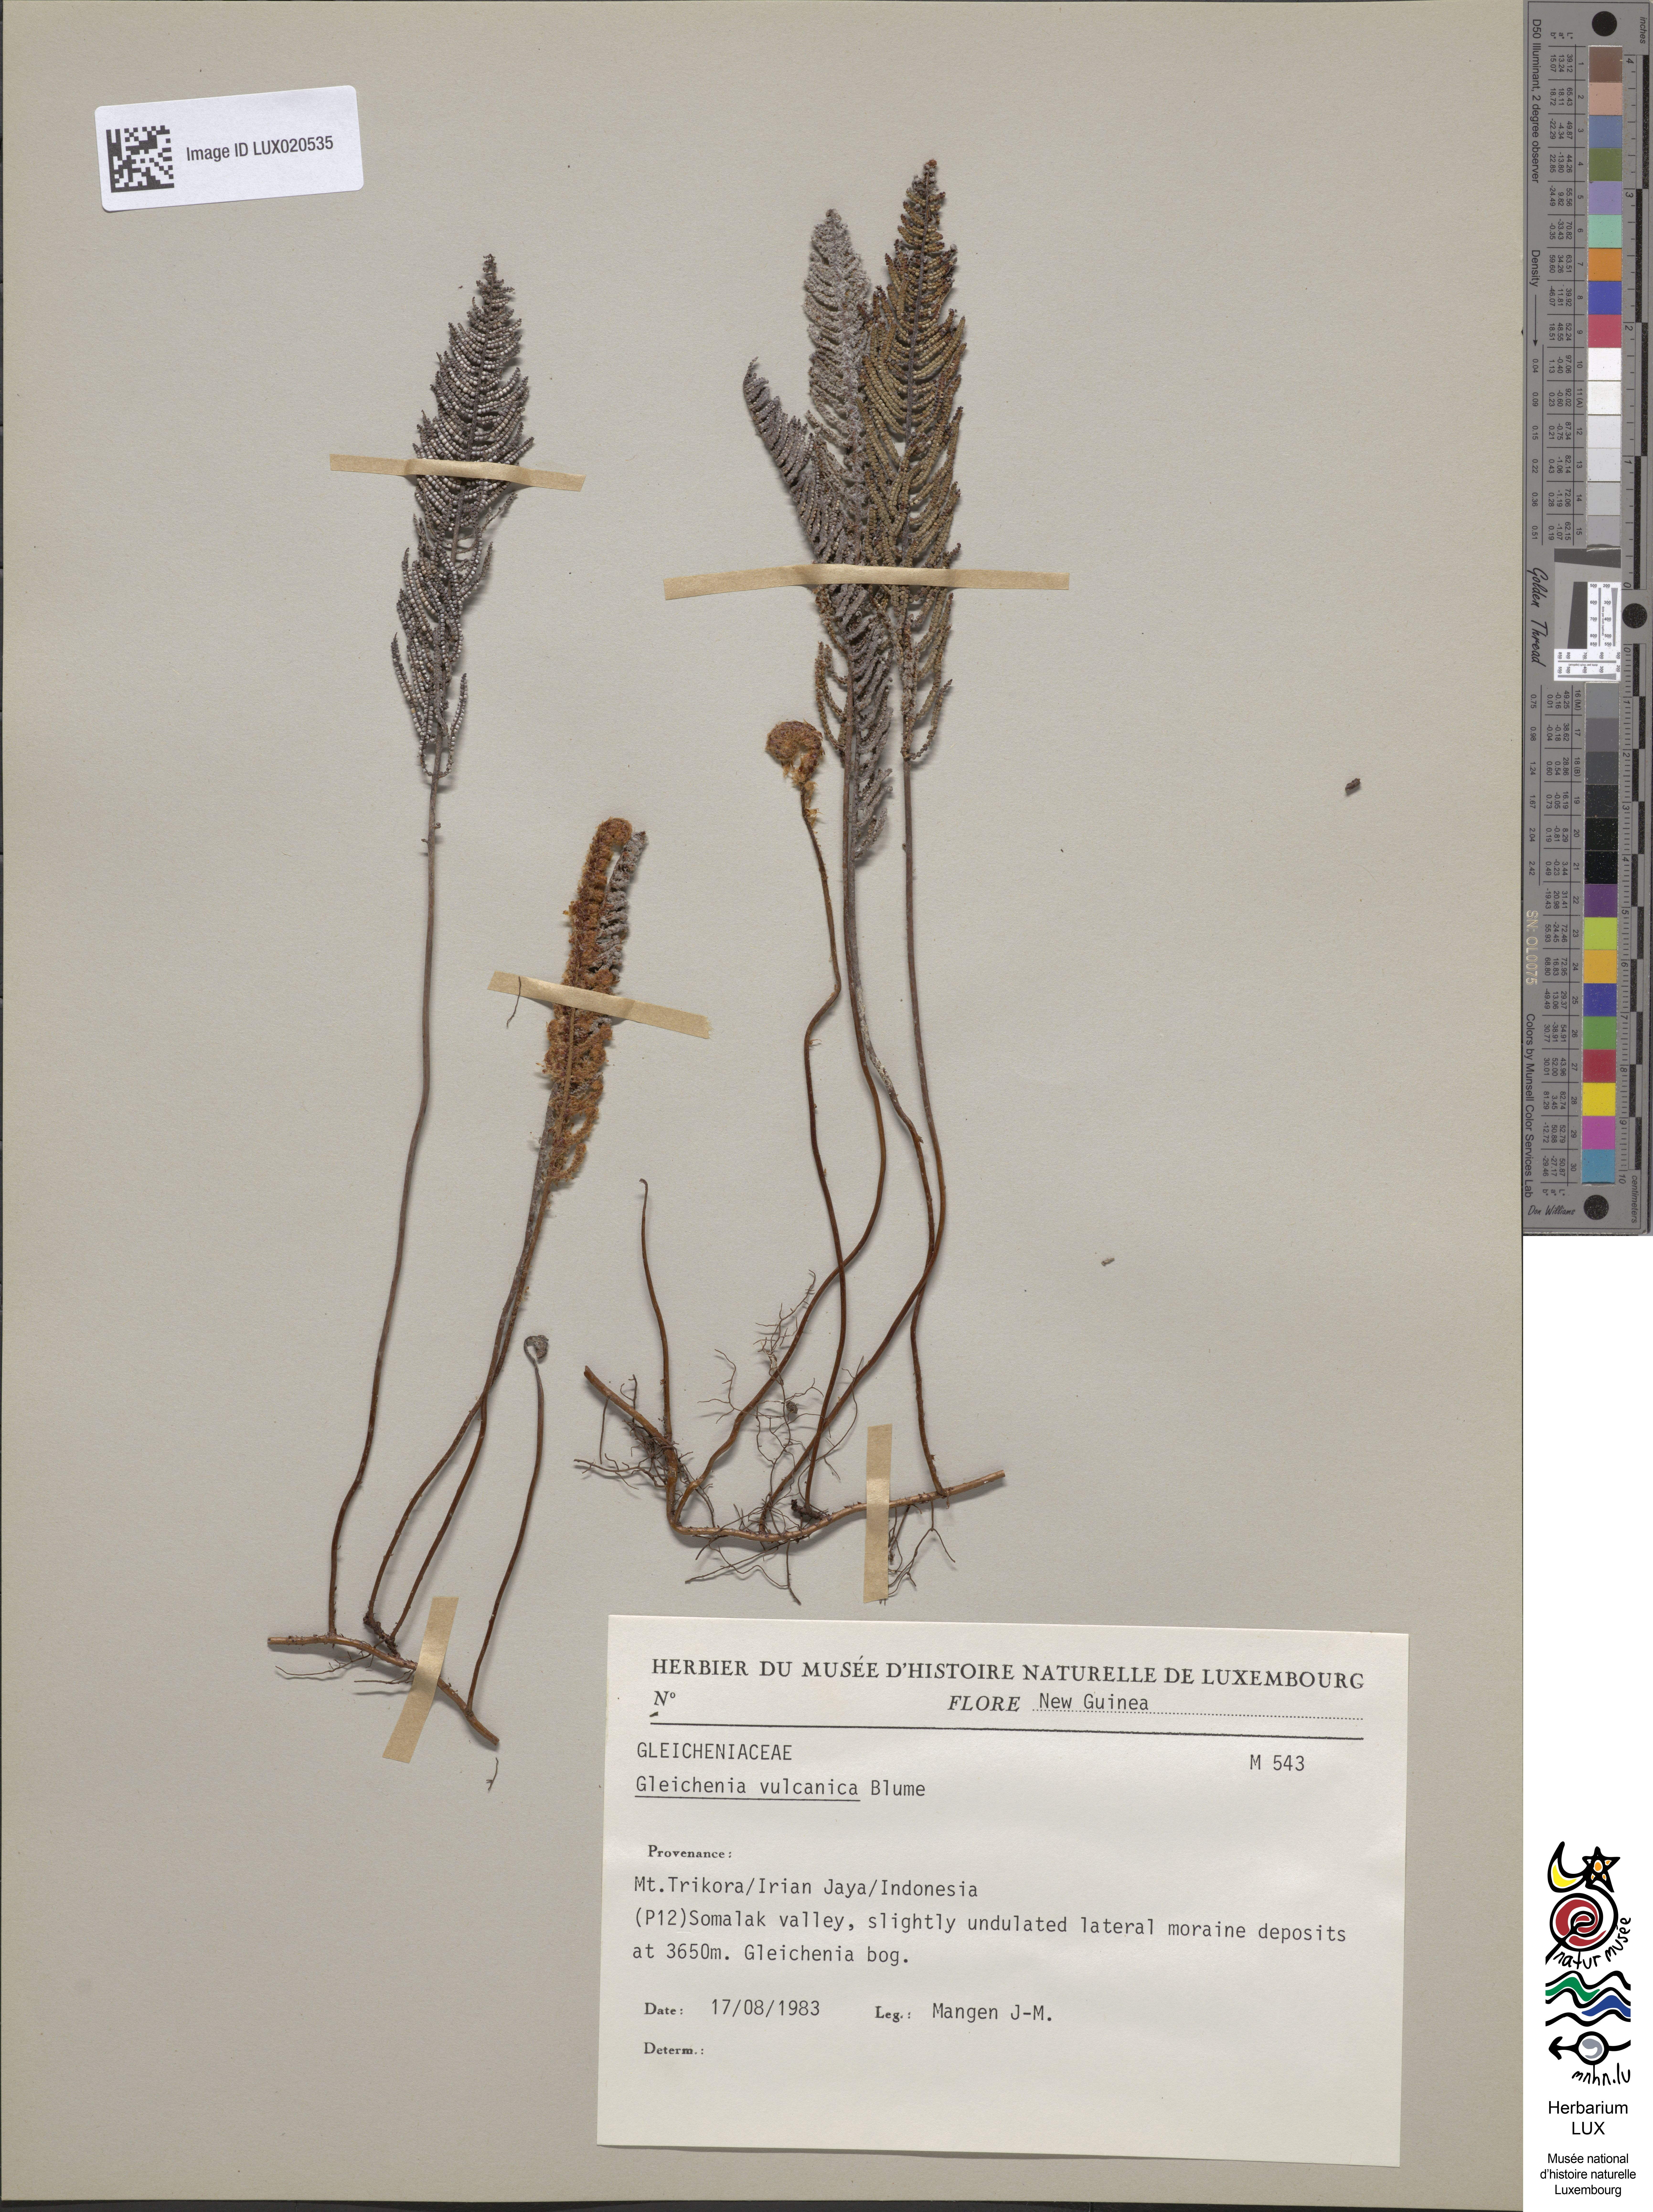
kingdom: Plantae
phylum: Tracheophyta
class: Polypodiopsida
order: Gleicheniales
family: Gleicheniaceae
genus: Gleichenia
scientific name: Gleichenia vulcanica
